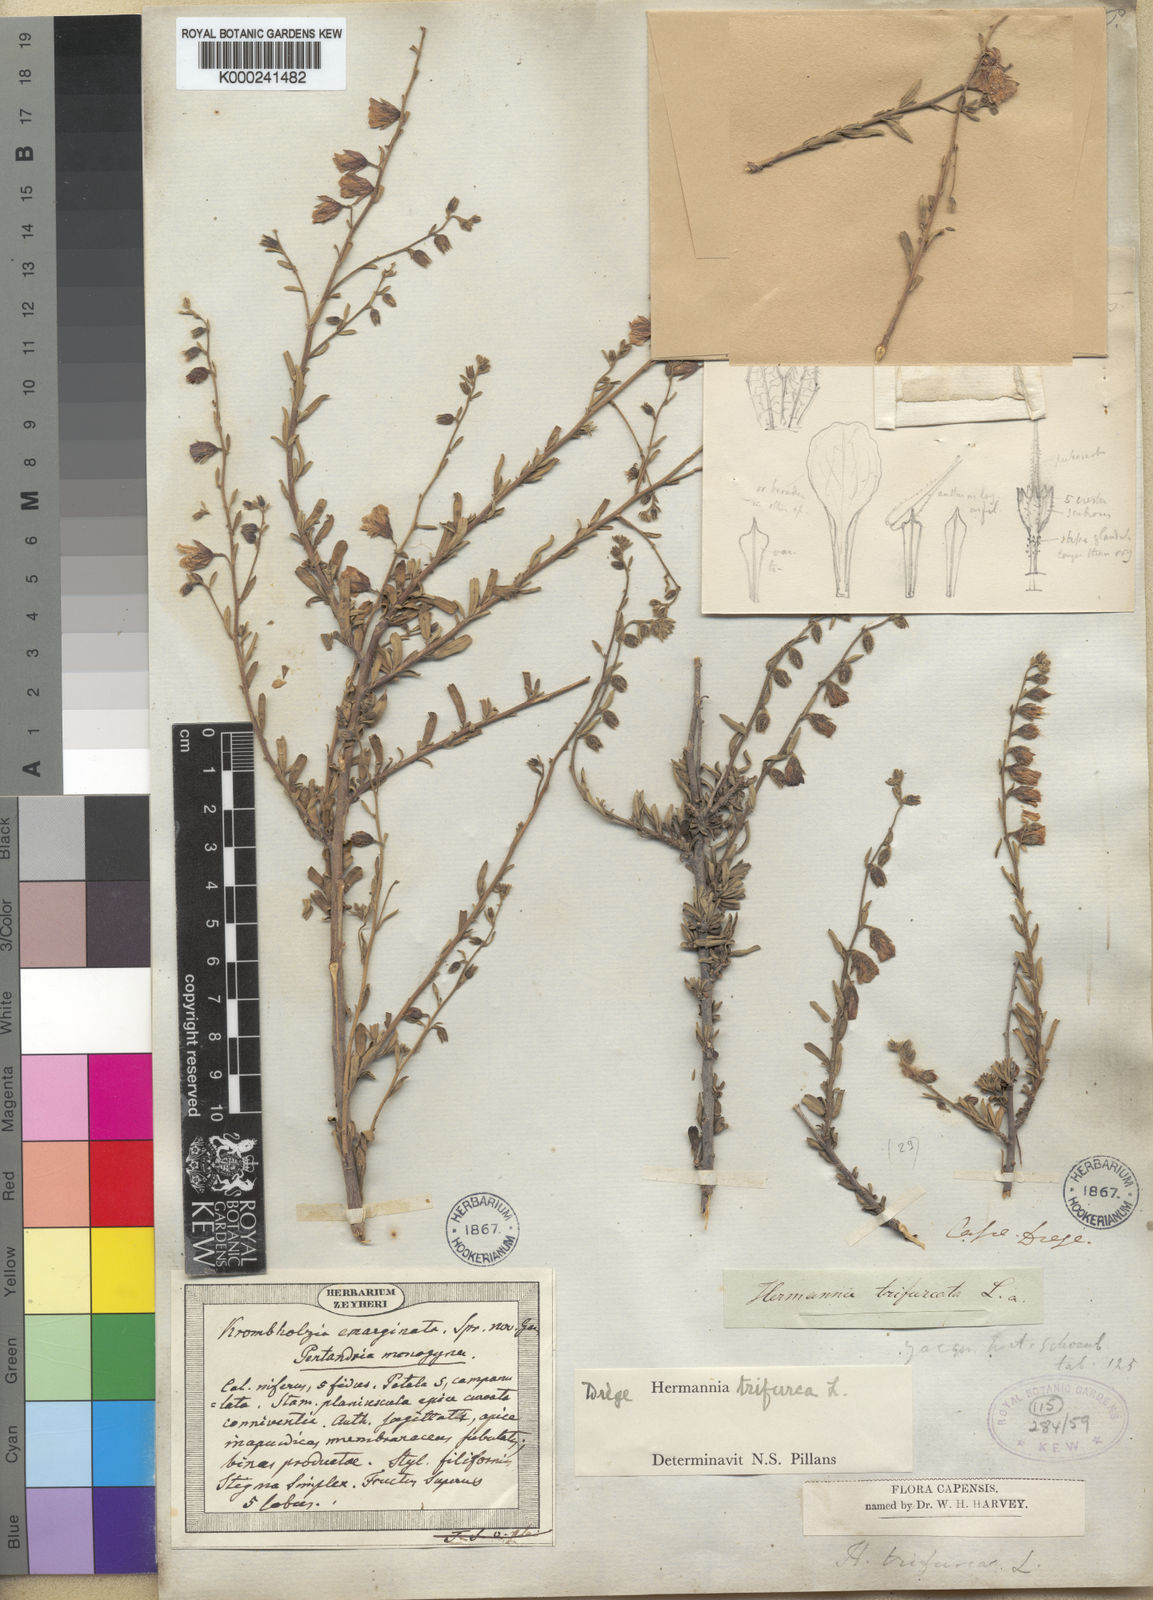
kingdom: Plantae
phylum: Tracheophyta
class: Magnoliopsida
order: Malvales
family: Malvaceae
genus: Hermannia
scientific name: Hermannia trifurca
